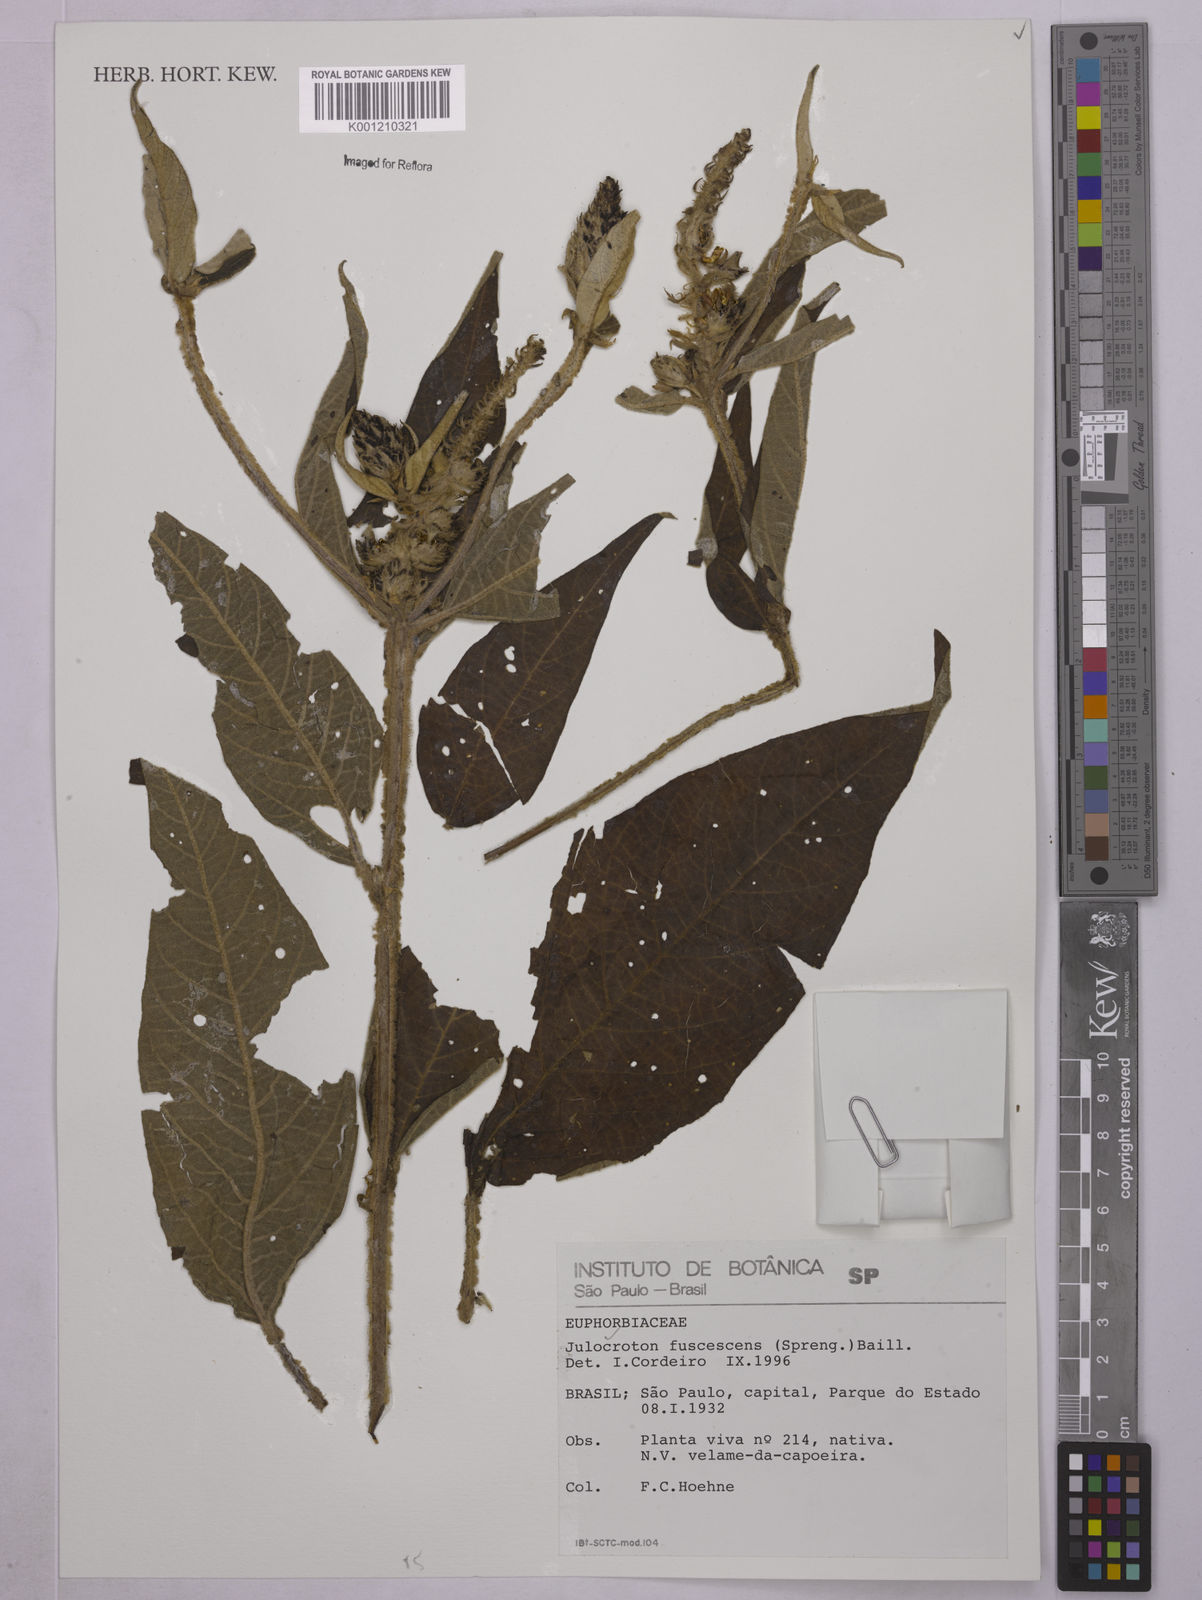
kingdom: Plantae
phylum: Tracheophyta
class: Magnoliopsida
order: Malpighiales
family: Euphorbiaceae
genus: Croton
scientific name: Croton gnaphaloides
